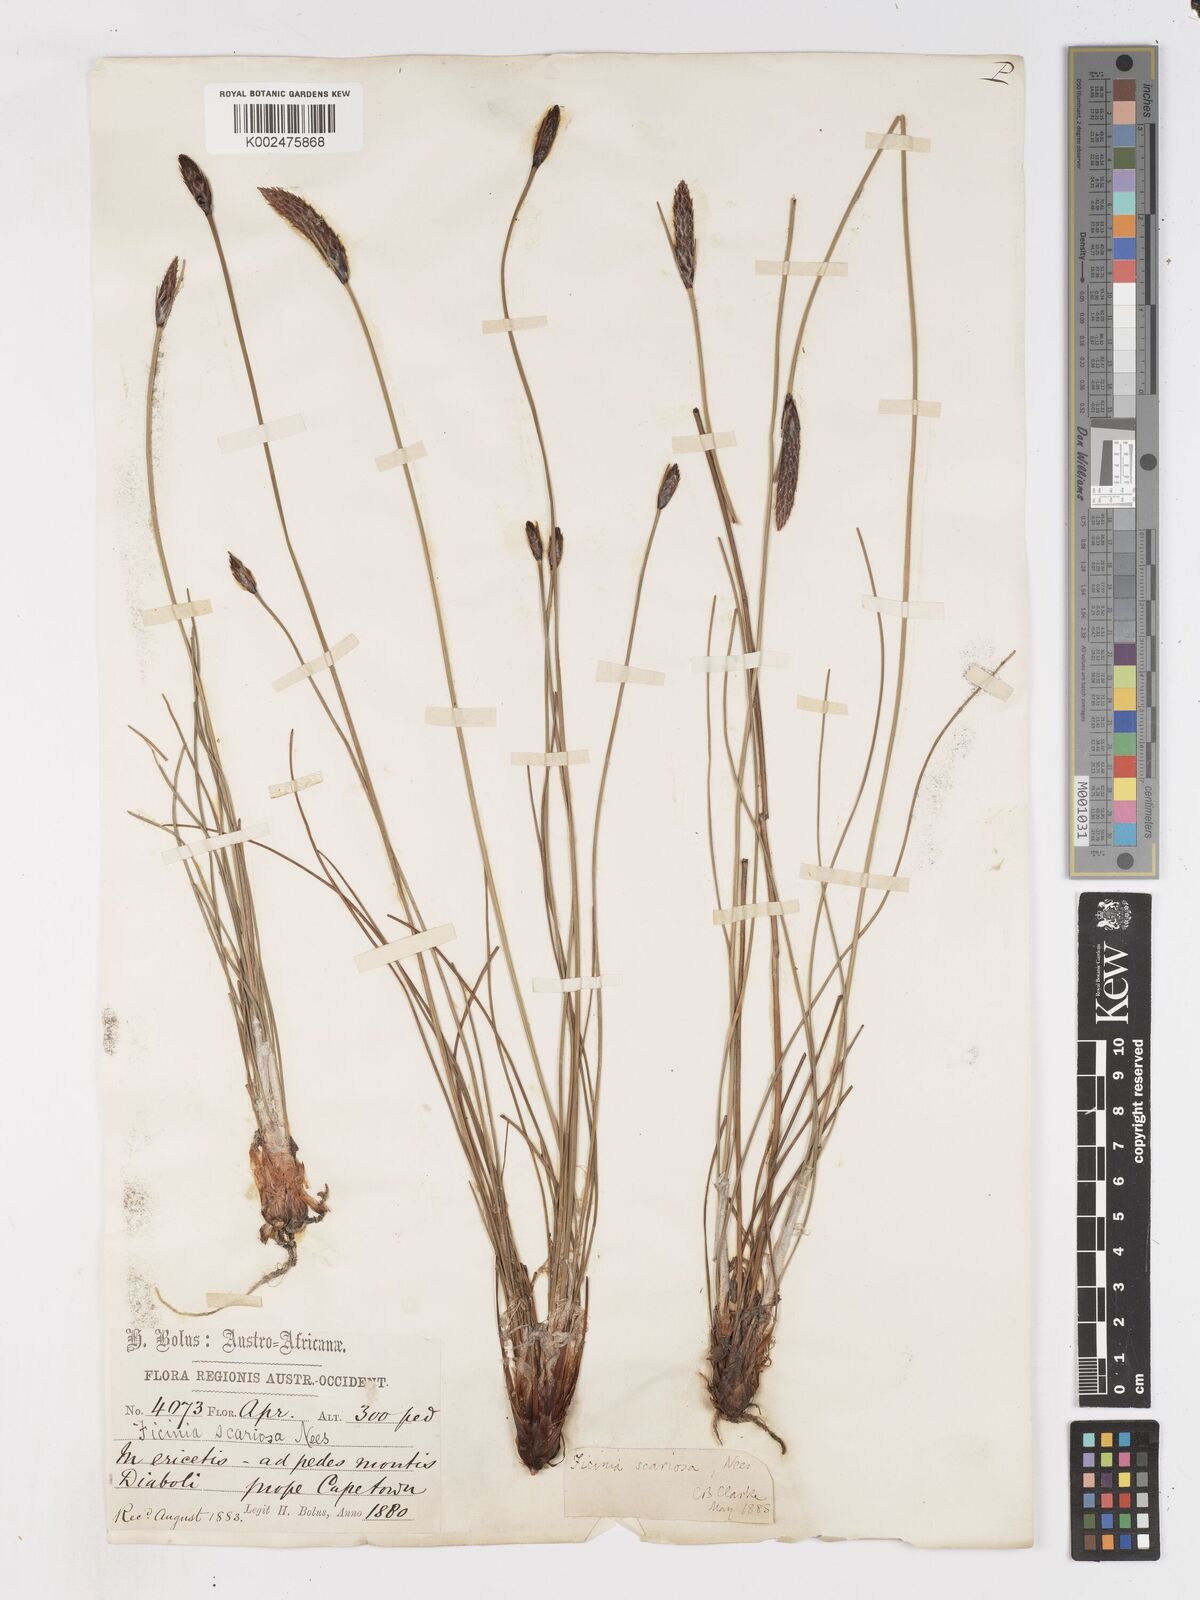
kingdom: Plantae
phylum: Tracheophyta
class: Liliopsida
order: Poales
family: Cyperaceae
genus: Ficinia
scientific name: Ficinia deusta
